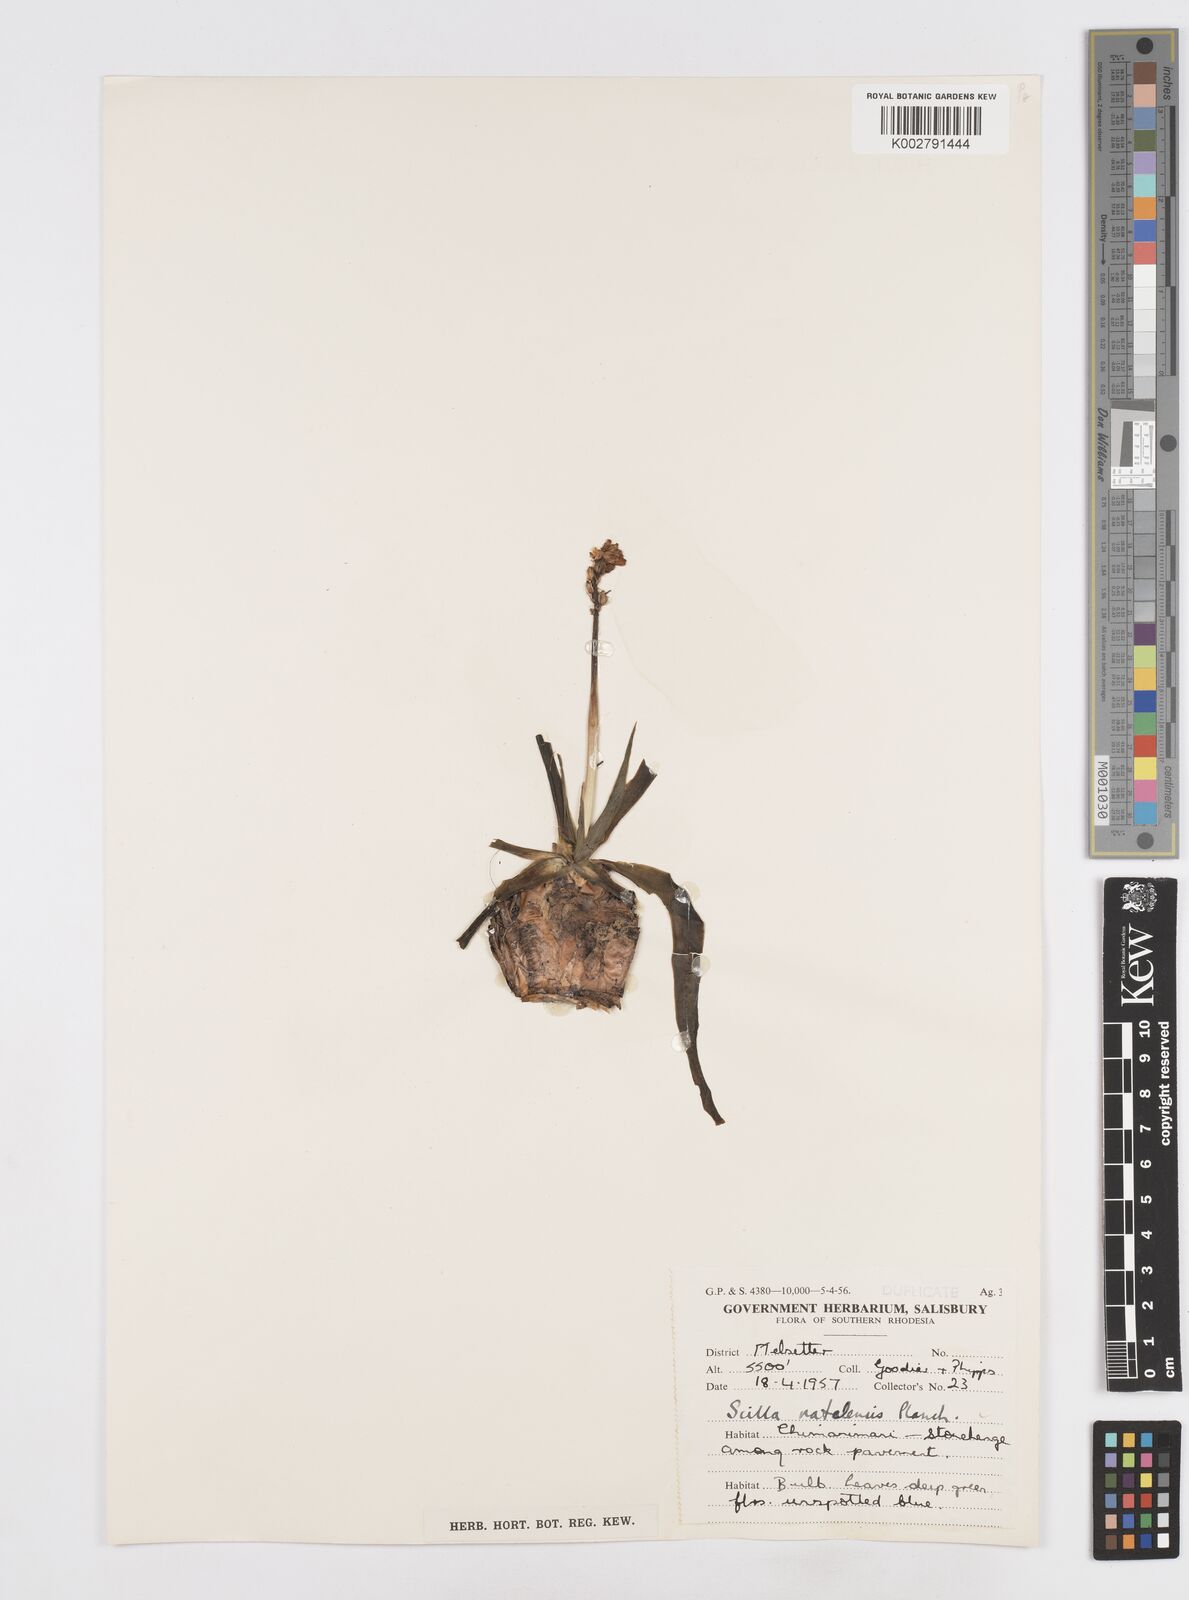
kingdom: Plantae
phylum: Tracheophyta
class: Liliopsida
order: Asparagales
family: Asparagaceae
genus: Merwilla
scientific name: Merwilla plumbea
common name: Blue-squill
